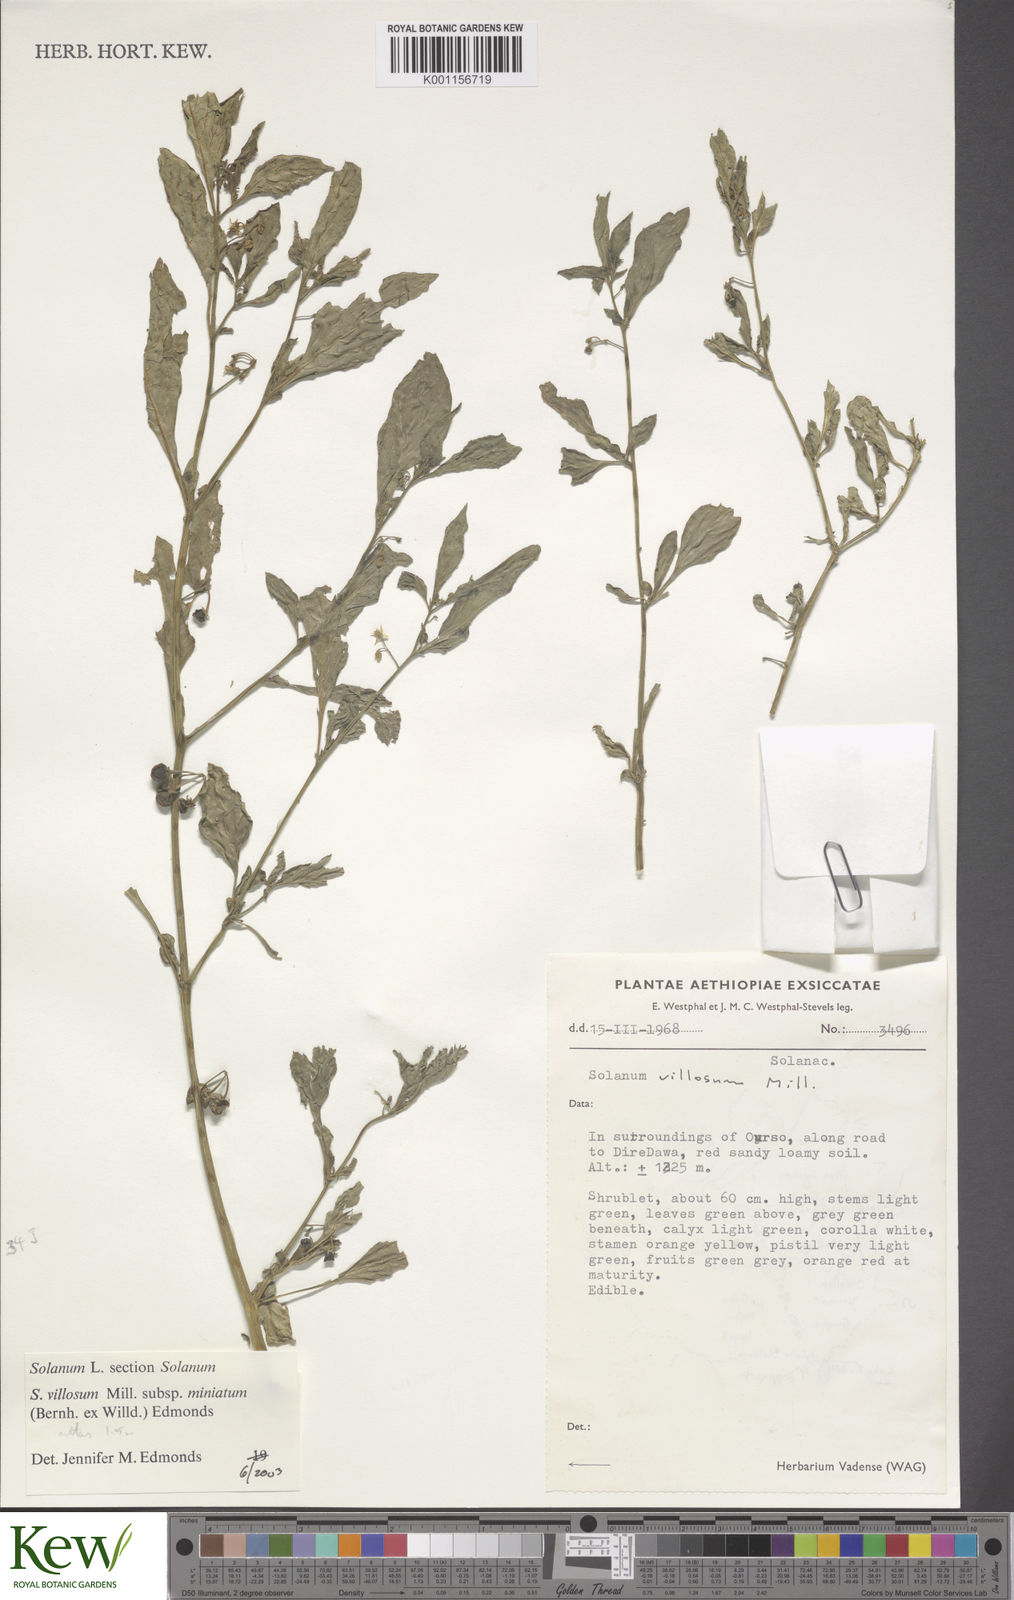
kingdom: Plantae
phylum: Tracheophyta
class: Magnoliopsida
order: Solanales
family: Solanaceae
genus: Solanum
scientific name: Solanum villosum
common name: Red nightshade
